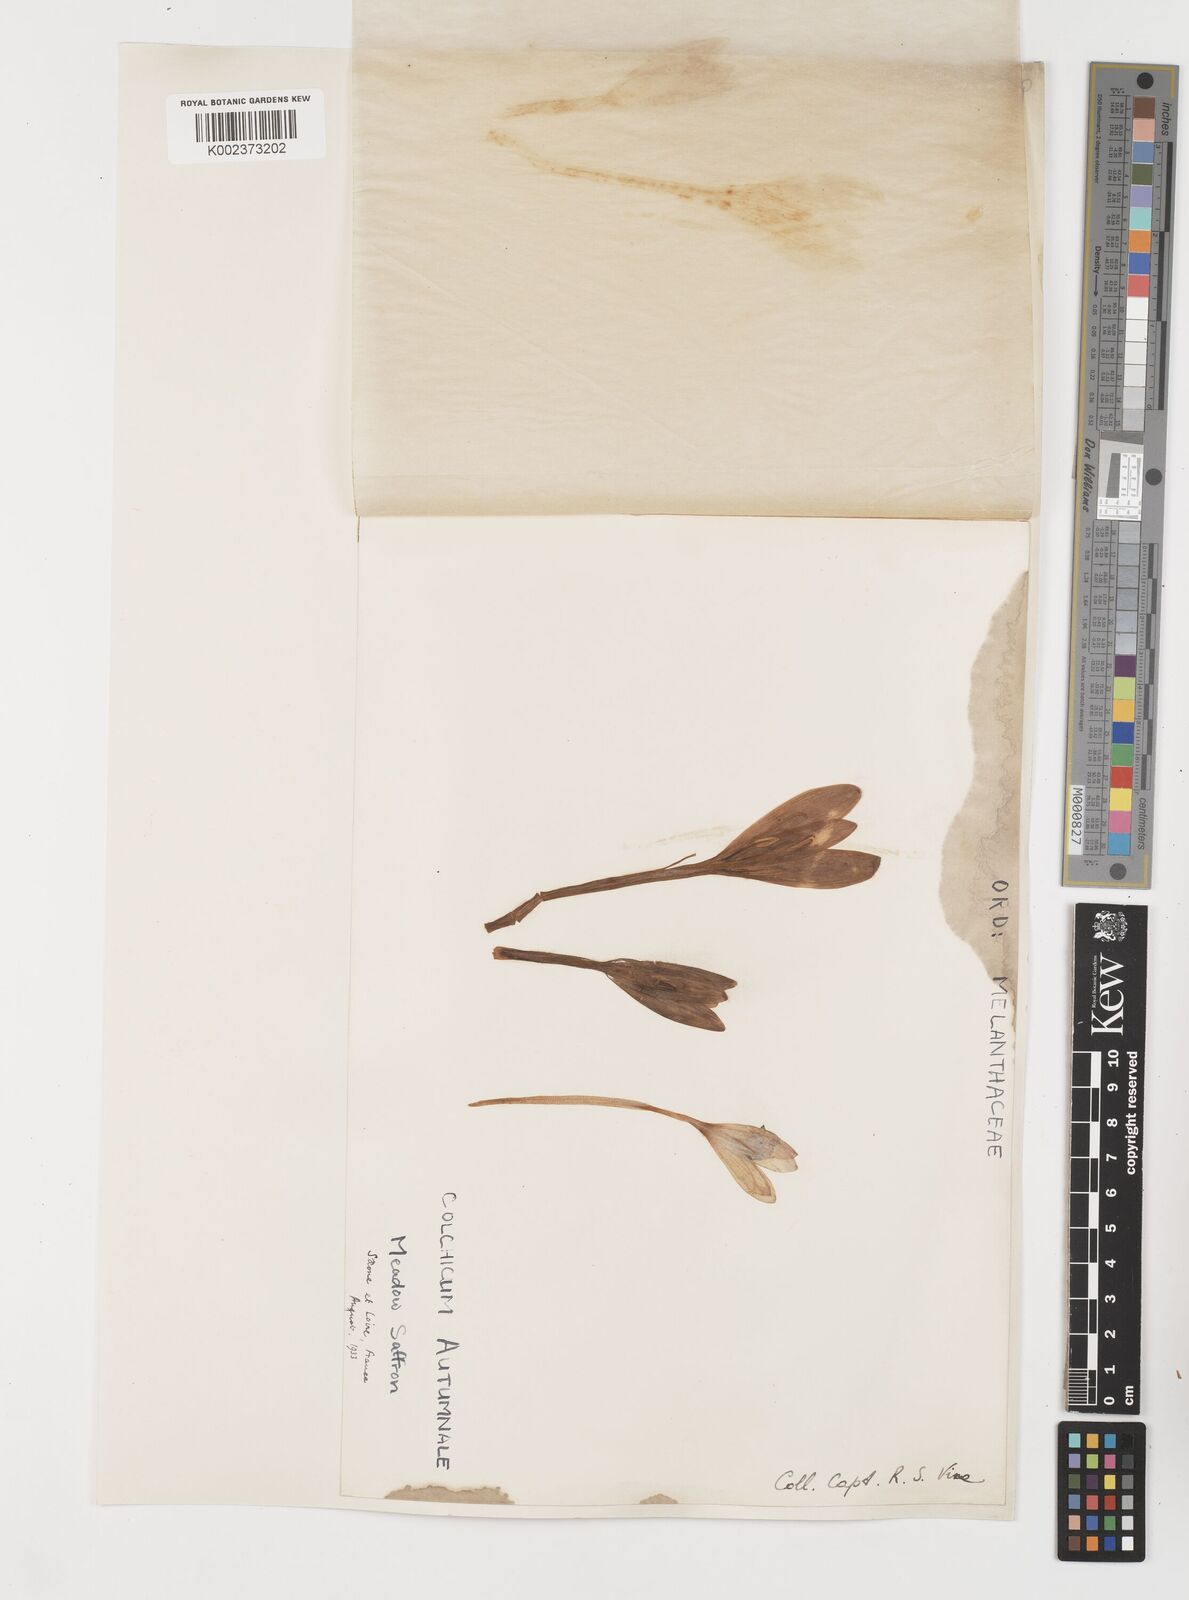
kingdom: Plantae
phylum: Tracheophyta
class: Liliopsida
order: Liliales
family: Colchicaceae
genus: Colchicum
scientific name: Colchicum autumnale
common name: Autumn crocus
